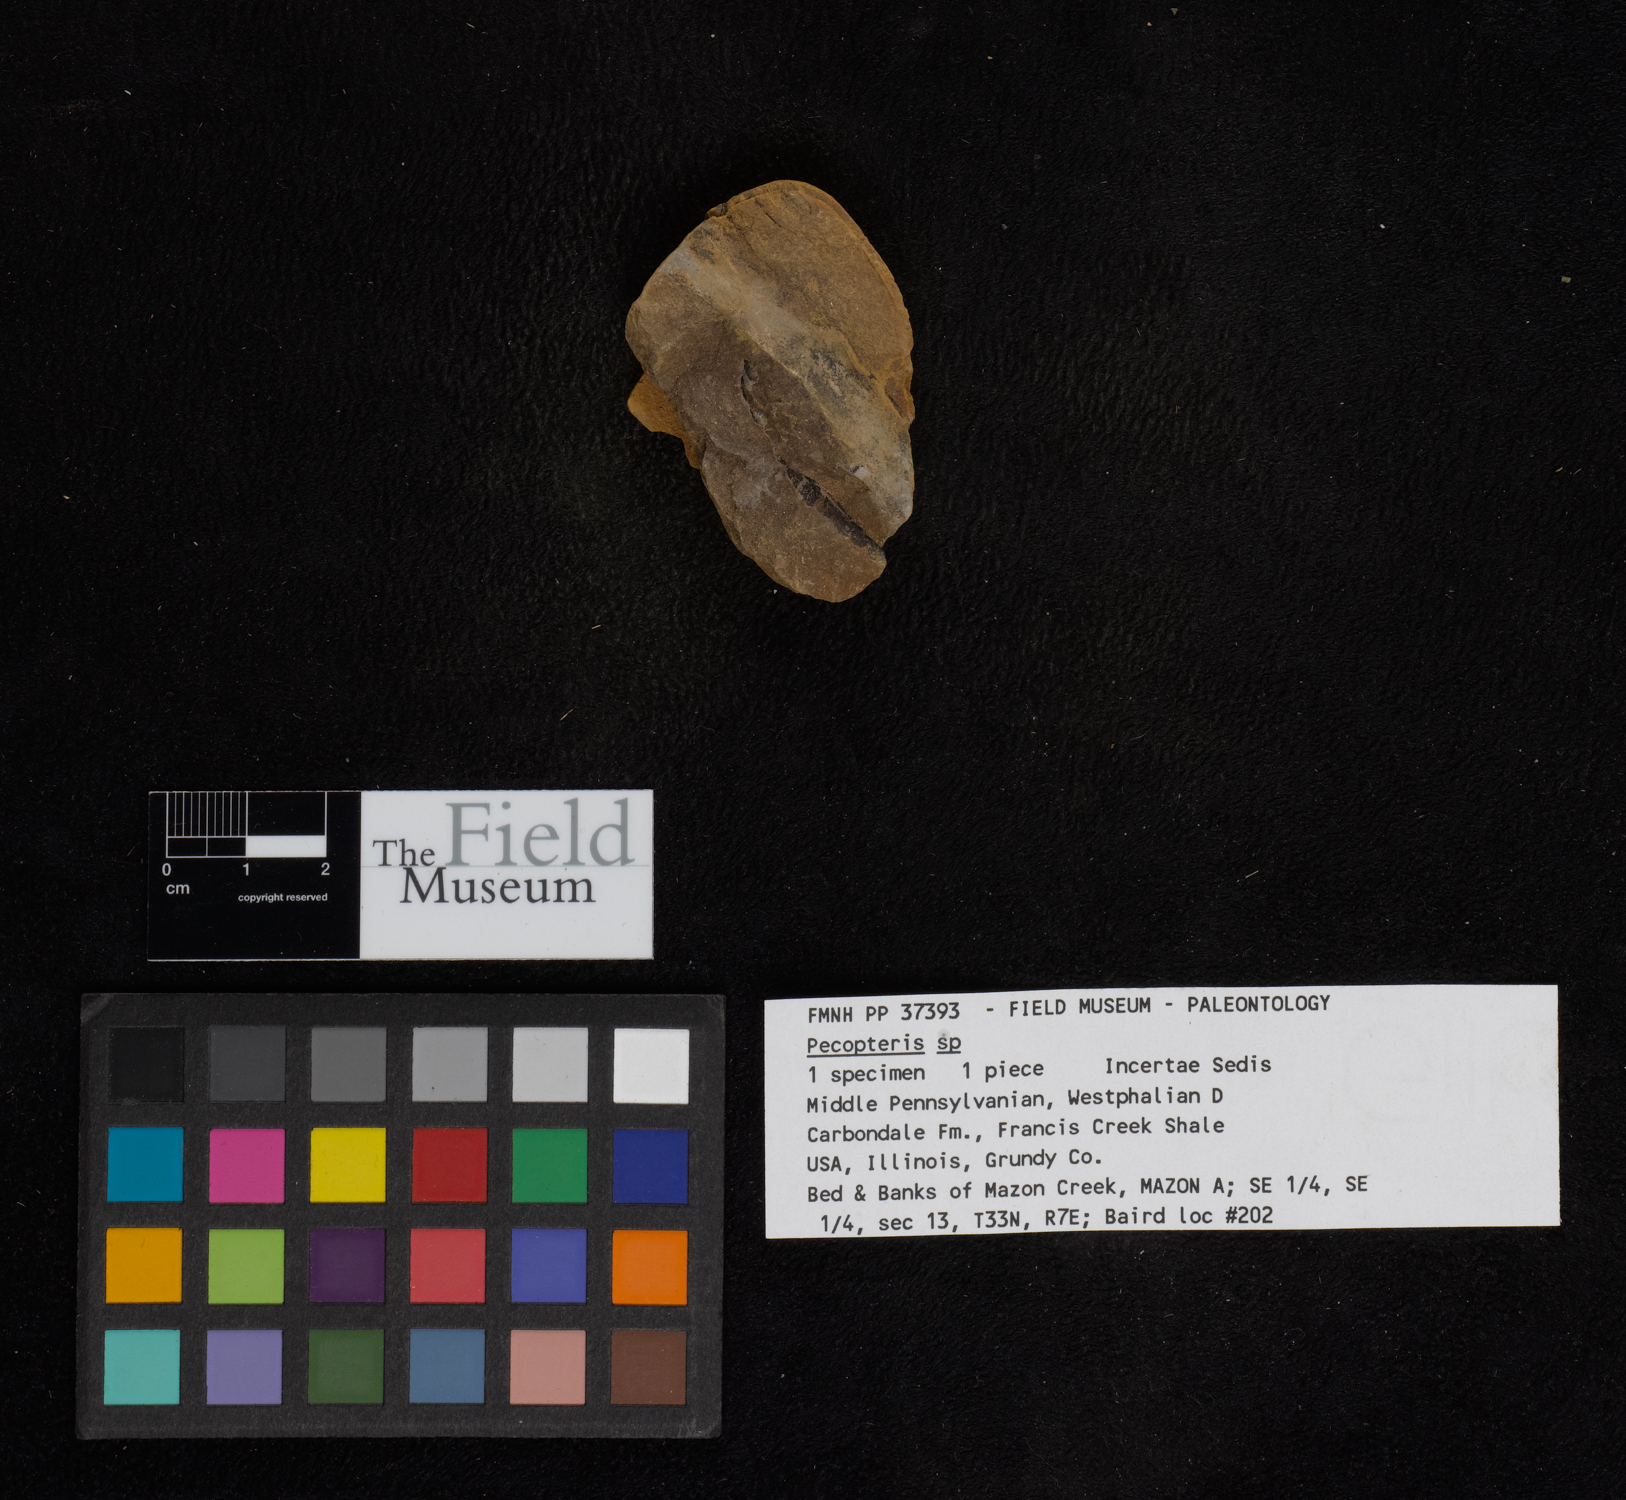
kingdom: Plantae
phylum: Tracheophyta
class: Polypodiopsida
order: Marattiales
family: Asterothecaceae
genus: Pecopteris
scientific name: Pecopteris
